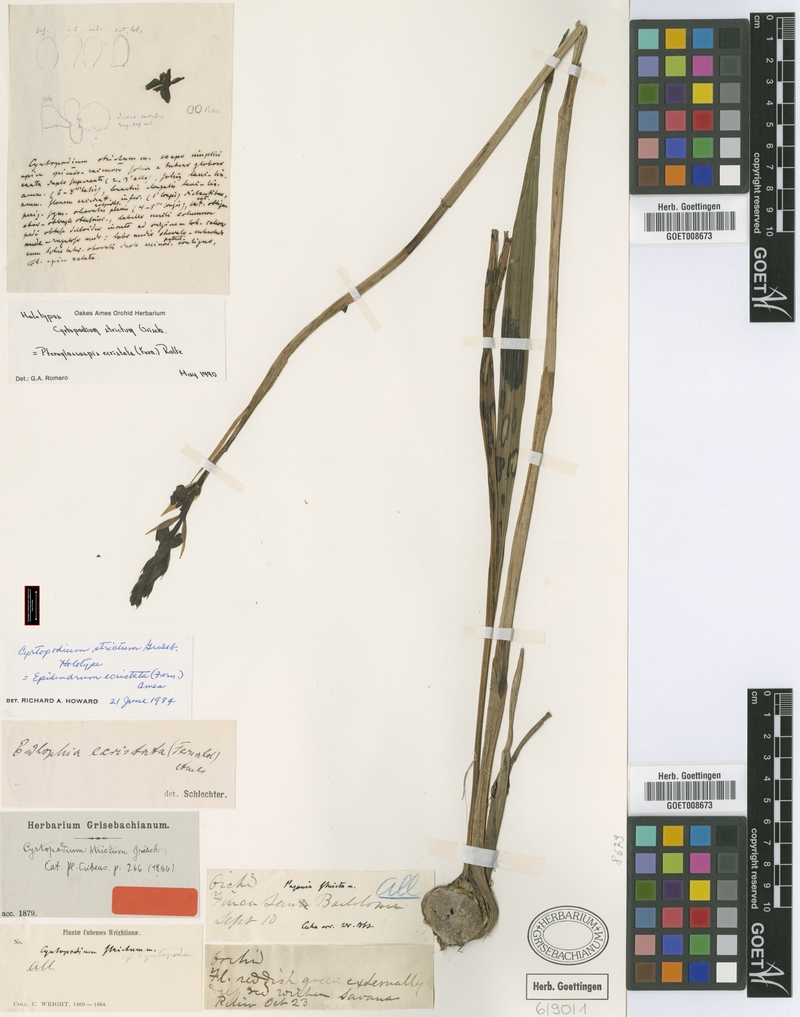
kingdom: Plantae
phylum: Tracheophyta
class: Liliopsida
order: Asparagales
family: Orchidaceae
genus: Eulophia
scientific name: Eulophia ecristata
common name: Giant orchid
